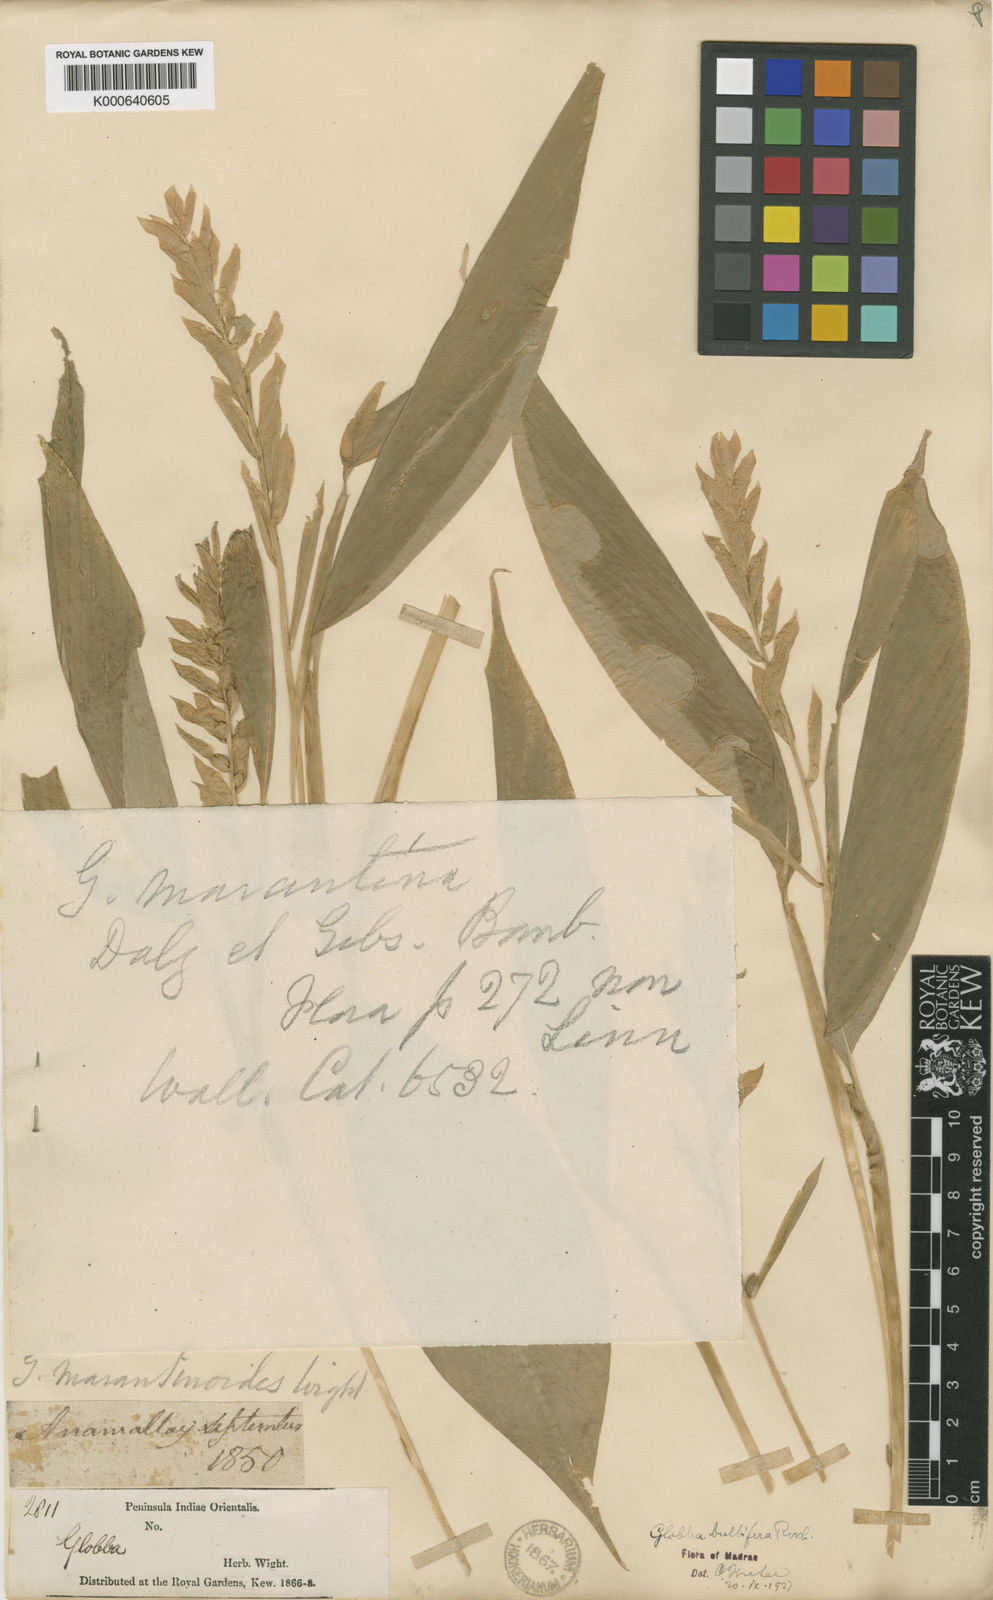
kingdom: Plantae
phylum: Tracheophyta
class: Liliopsida
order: Zingiberales
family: Zingiberaceae
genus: Globba
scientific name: Globba marantina
